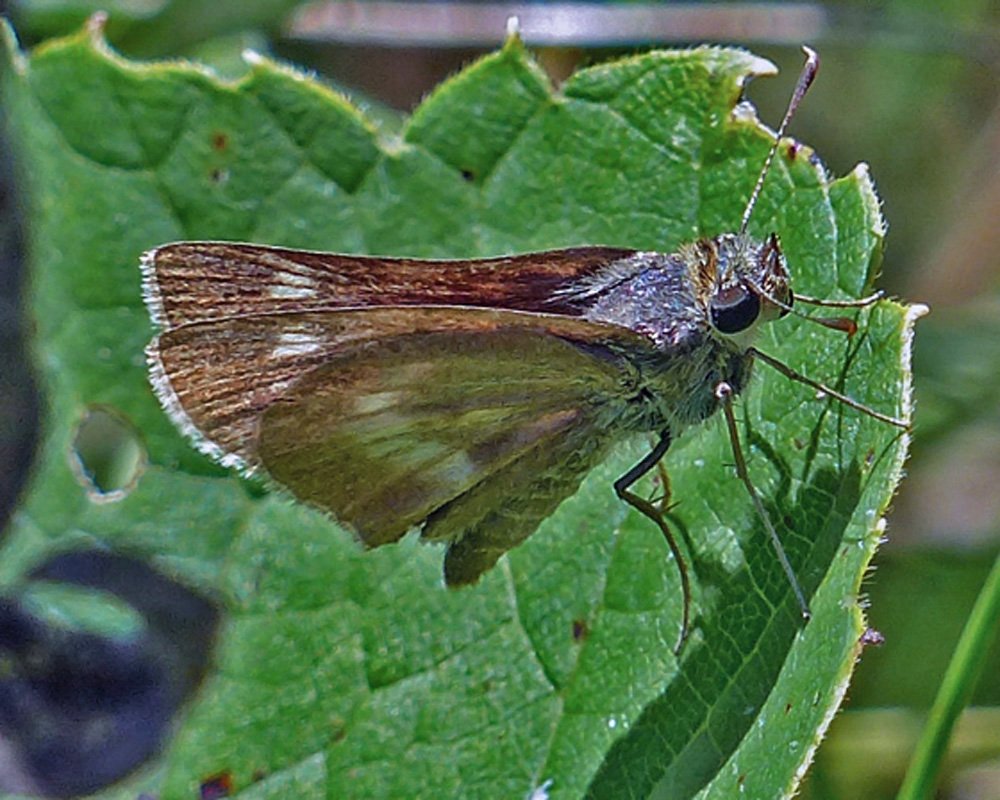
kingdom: Animalia
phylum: Arthropoda
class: Insecta
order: Lepidoptera
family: Hesperiidae
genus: Polites
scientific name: Polites
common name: Long Dash Skipper
